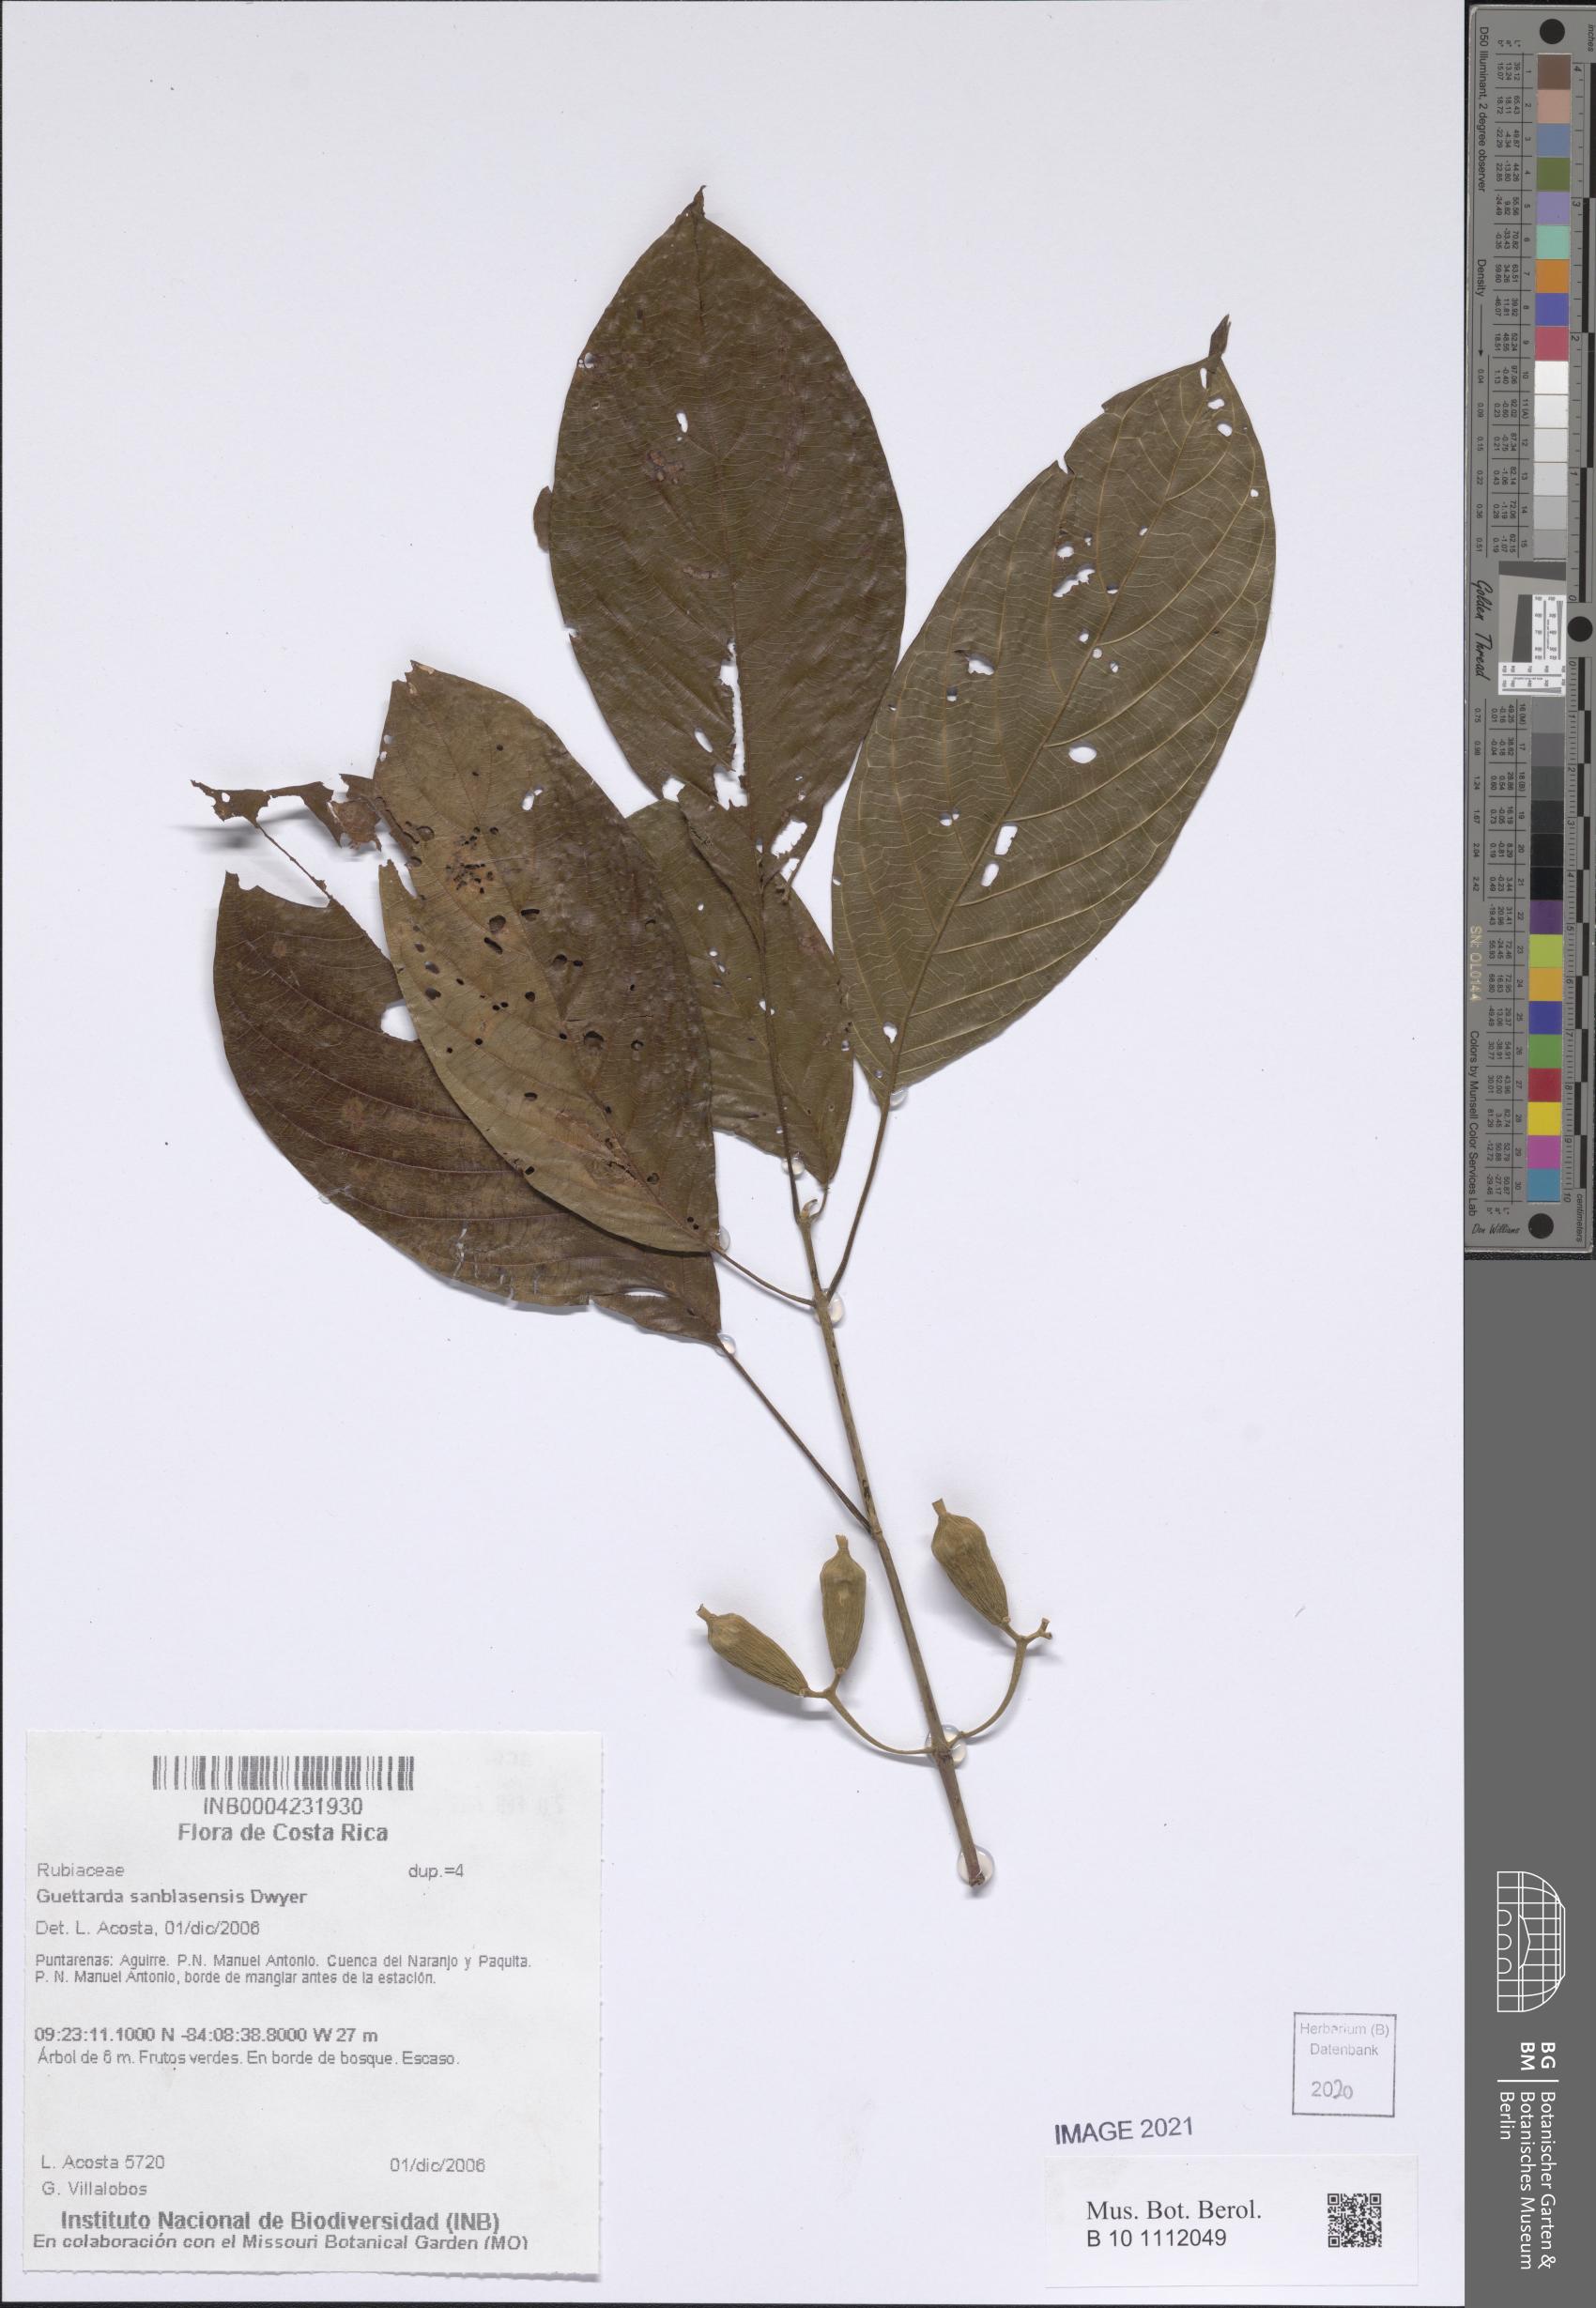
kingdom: Plantae
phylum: Tracheophyta
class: Magnoliopsida
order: Gentianales
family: Rubiaceae
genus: Guettarda
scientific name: Guettarda sanblasensis
